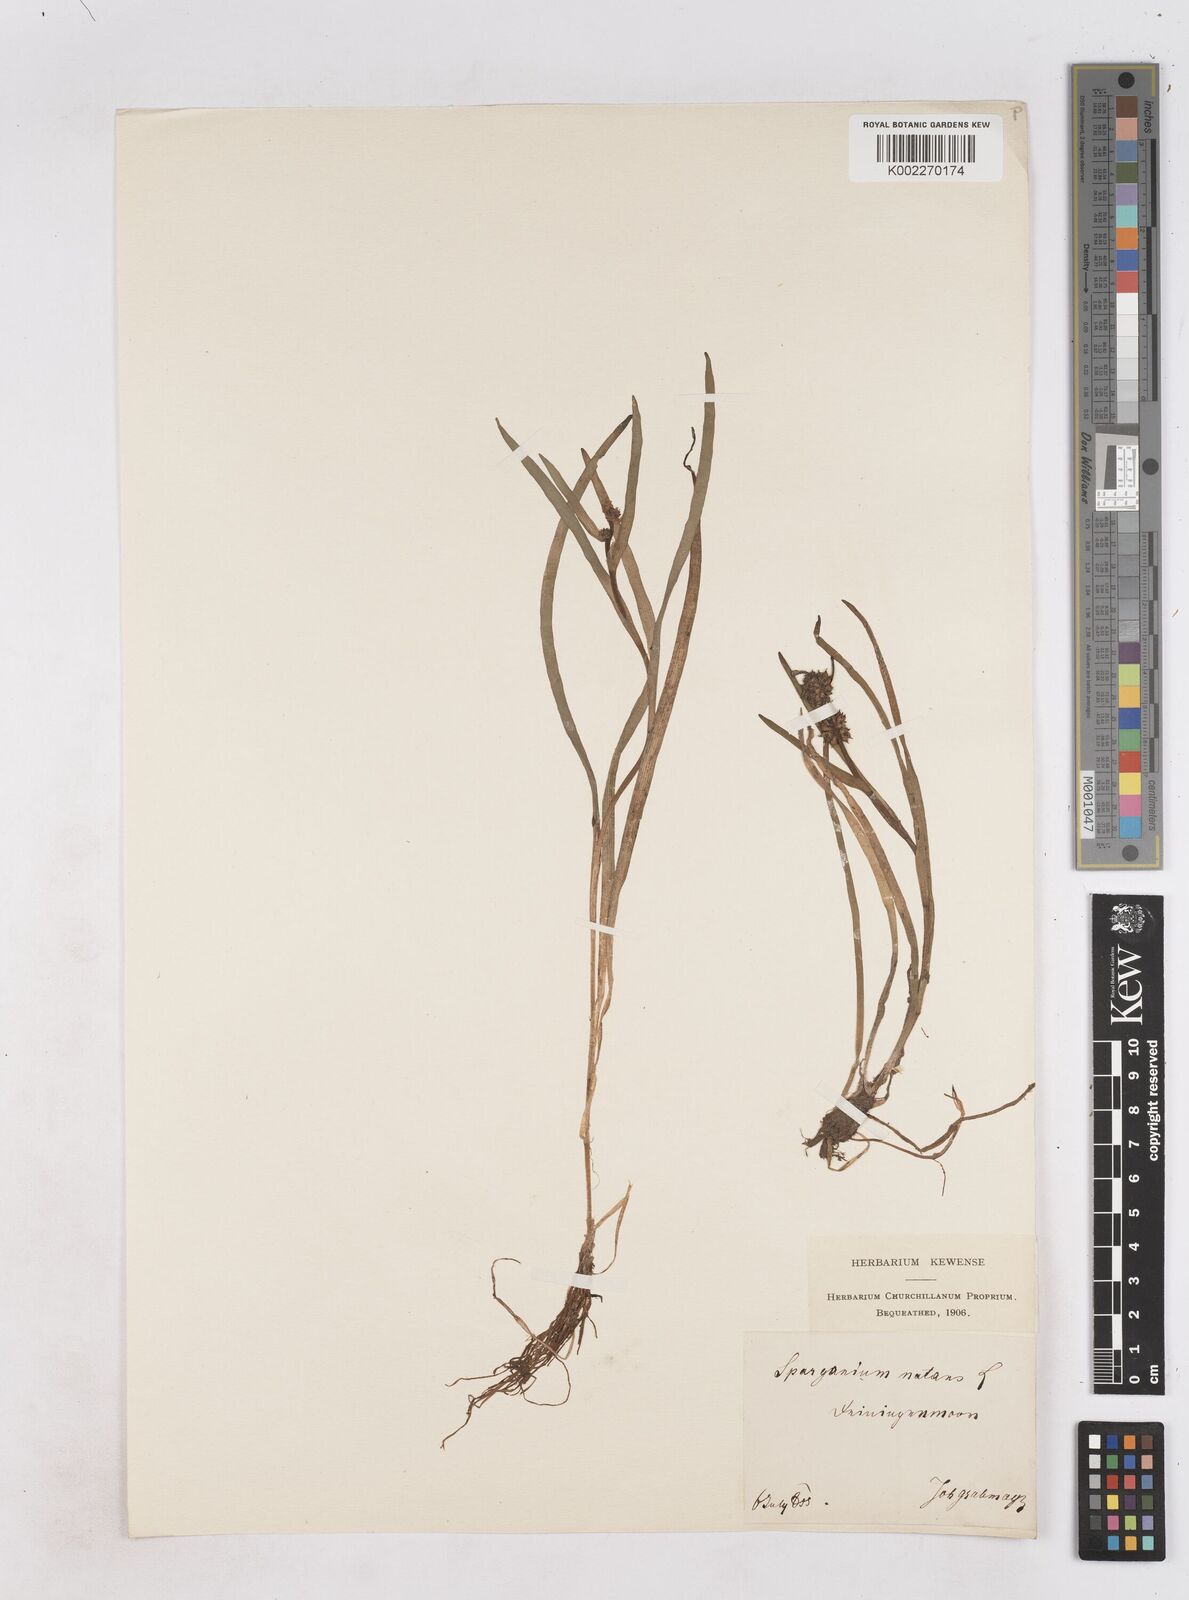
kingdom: Plantae
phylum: Tracheophyta
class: Liliopsida
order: Poales
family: Typhaceae
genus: Sparganium
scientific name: Sparganium natans
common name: Least bur-reed
